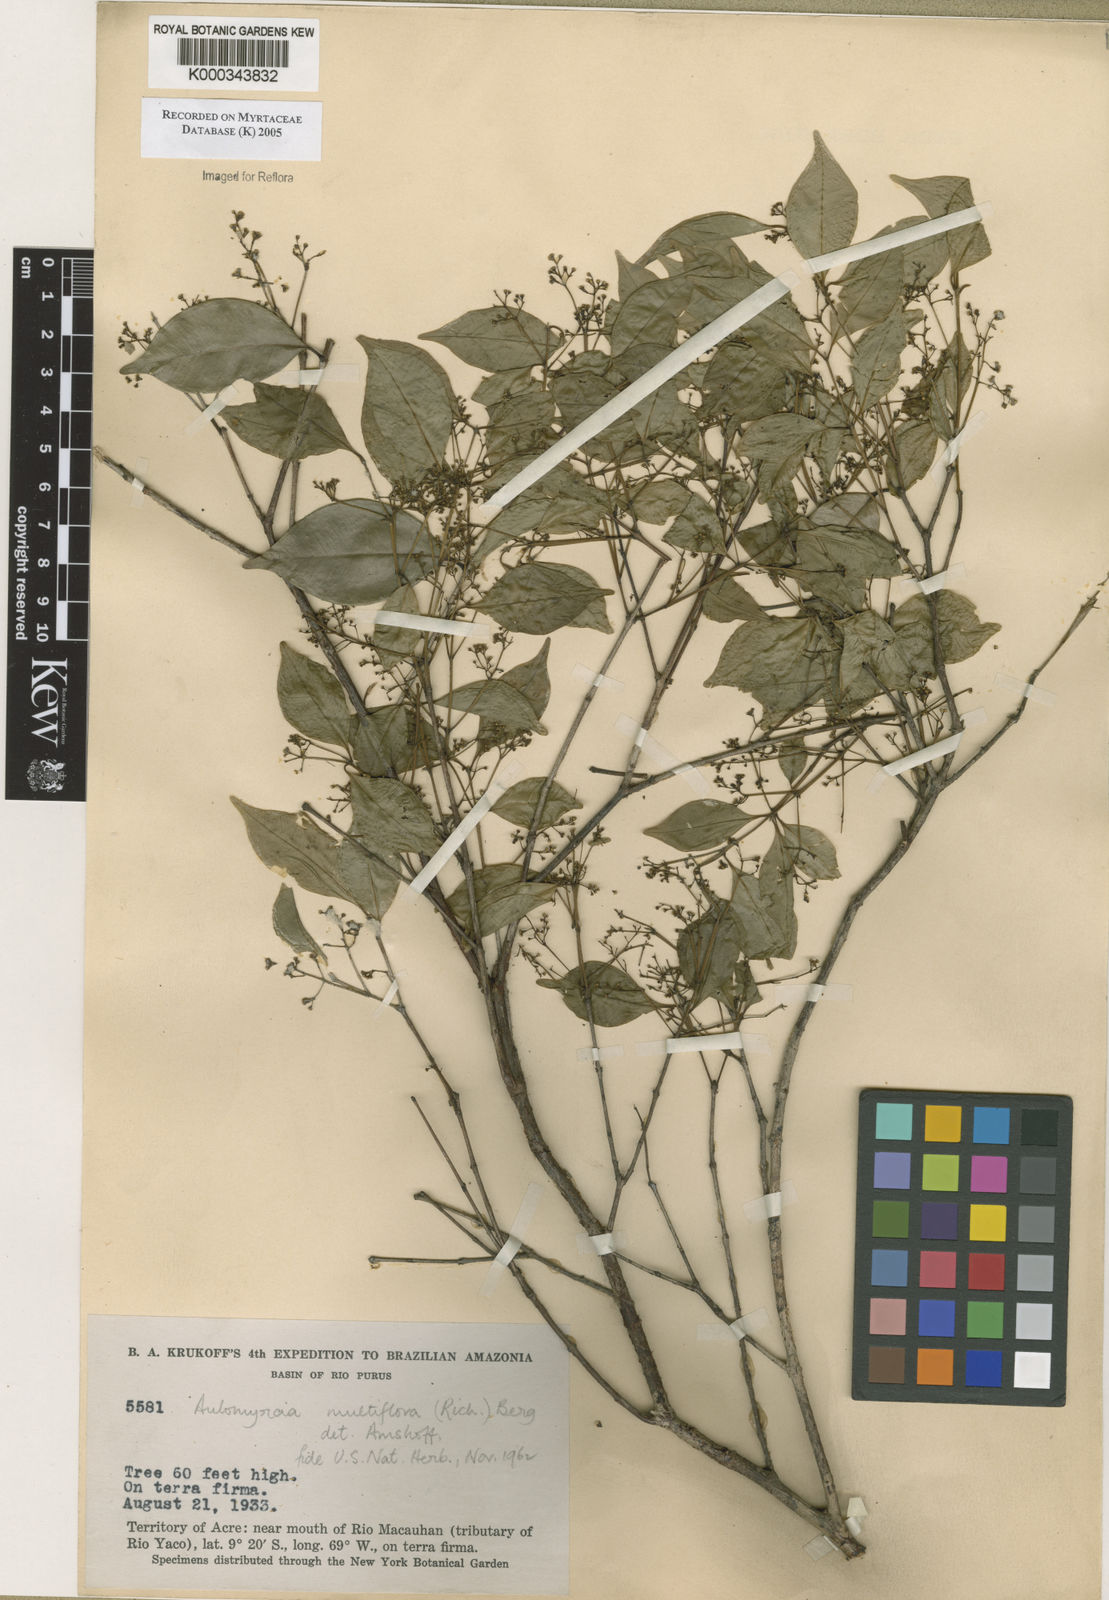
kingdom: Plantae
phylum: Tracheophyta
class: Magnoliopsida
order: Myrtales
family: Myrtaceae
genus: Myrcia
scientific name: Myrcia multiflora
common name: Pedra hume
